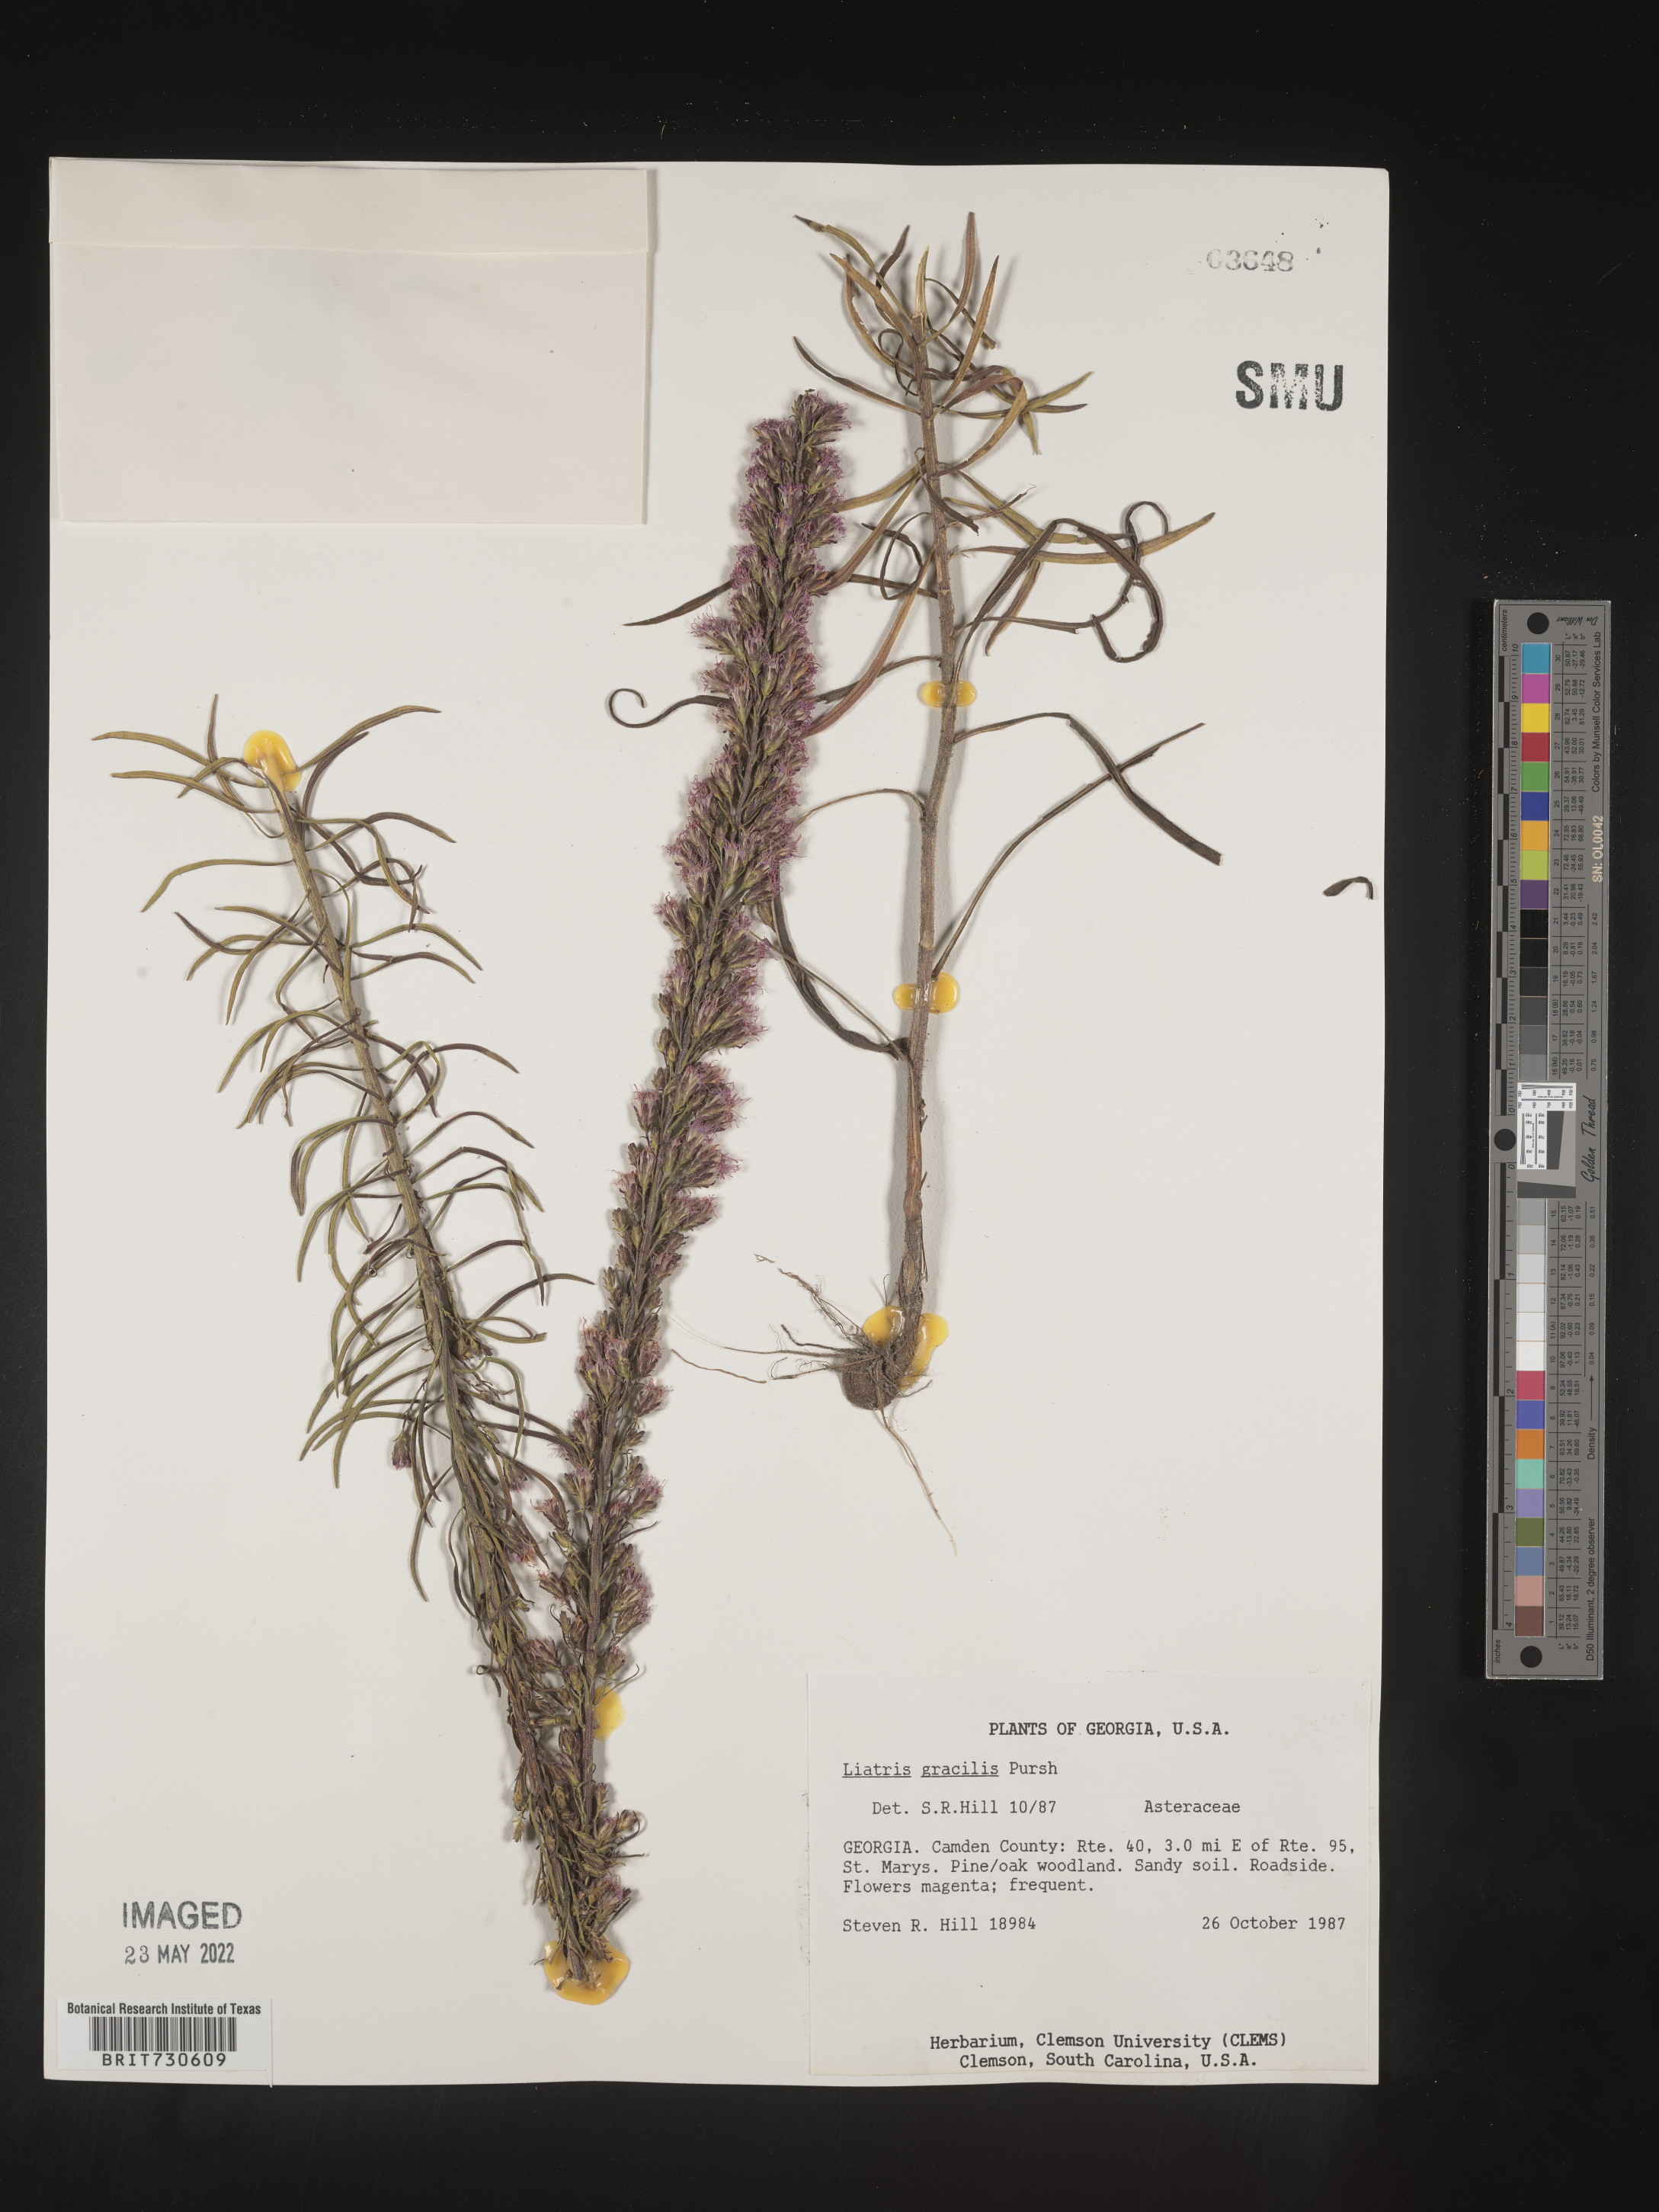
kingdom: Plantae
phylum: Tracheophyta
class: Magnoliopsida
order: Asterales
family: Asteraceae
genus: Liatris
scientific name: Liatris gracilis
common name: Slender gayfeather
